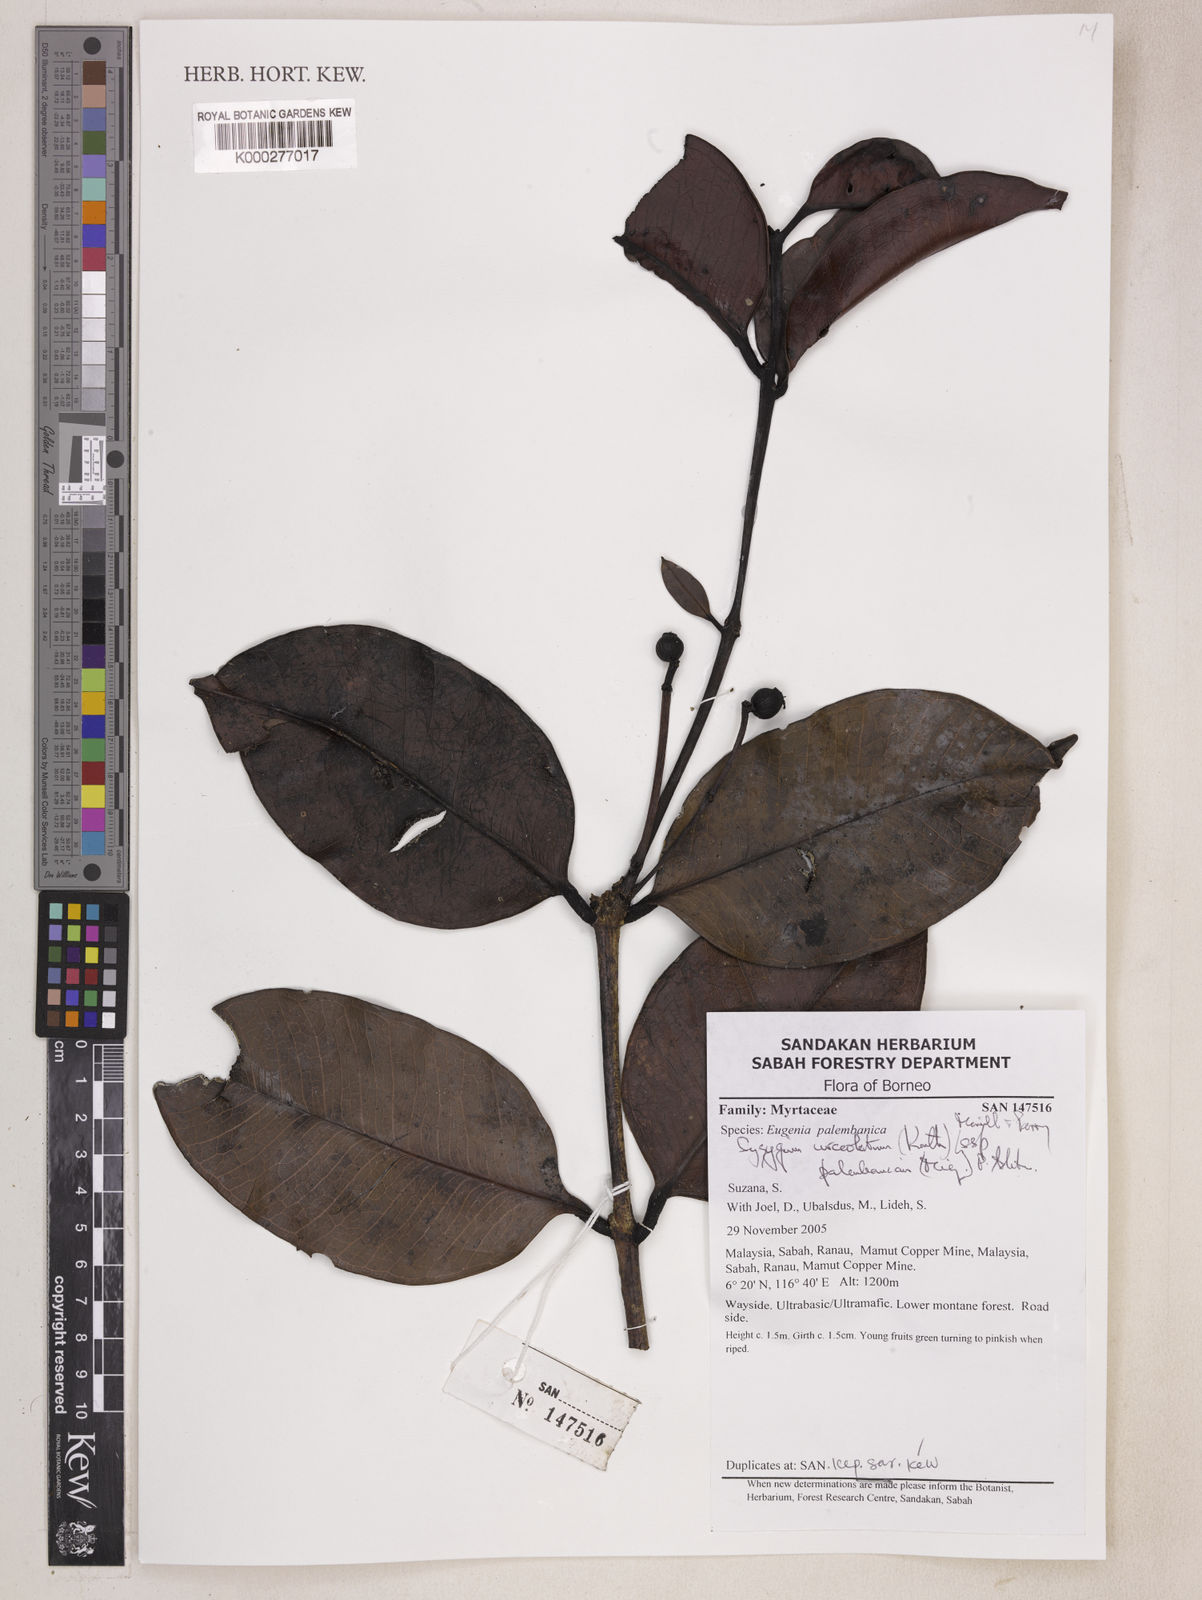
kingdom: Plantae
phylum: Tracheophyta
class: Magnoliopsida
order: Myrtales
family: Myrtaceae
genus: Syzygium
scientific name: Syzygium urceolatum
